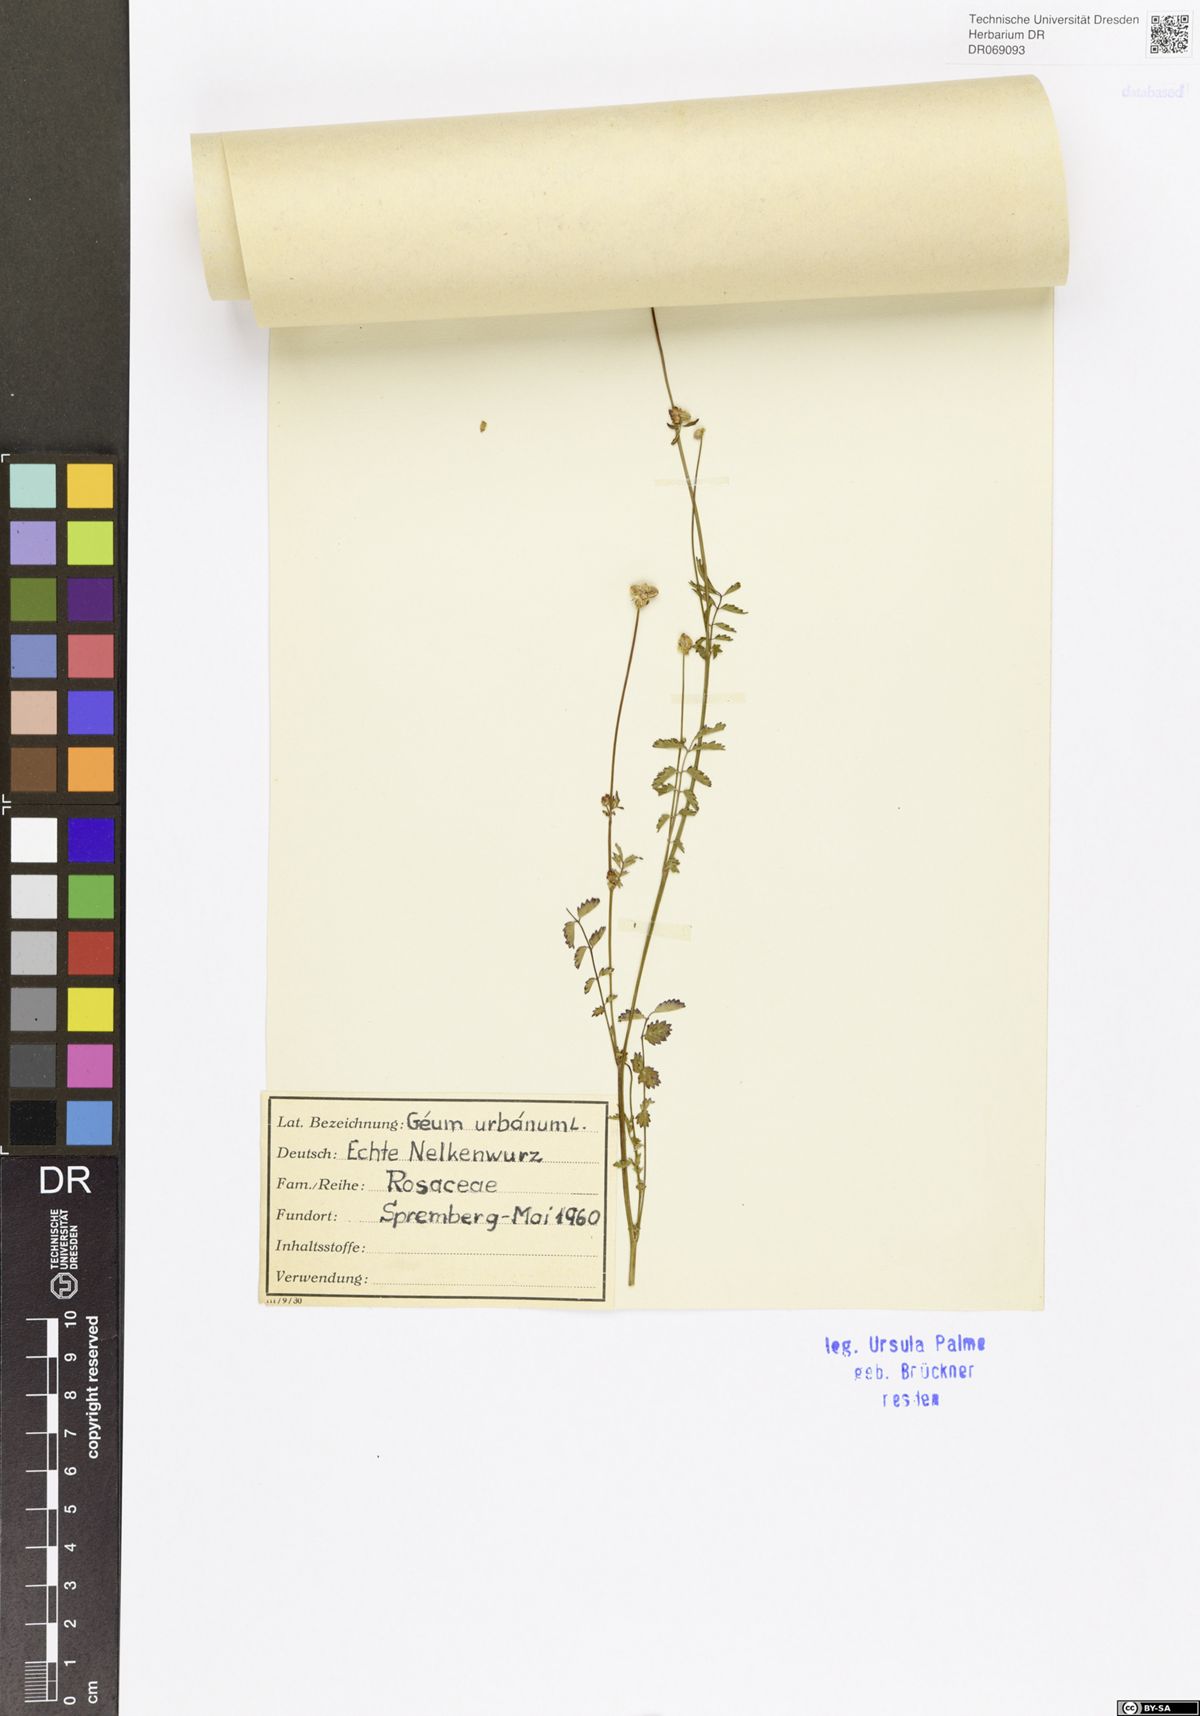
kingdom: Plantae
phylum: Tracheophyta
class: Magnoliopsida
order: Rosales
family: Rosaceae
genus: Geum
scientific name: Geum urbanum
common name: Wood avens
